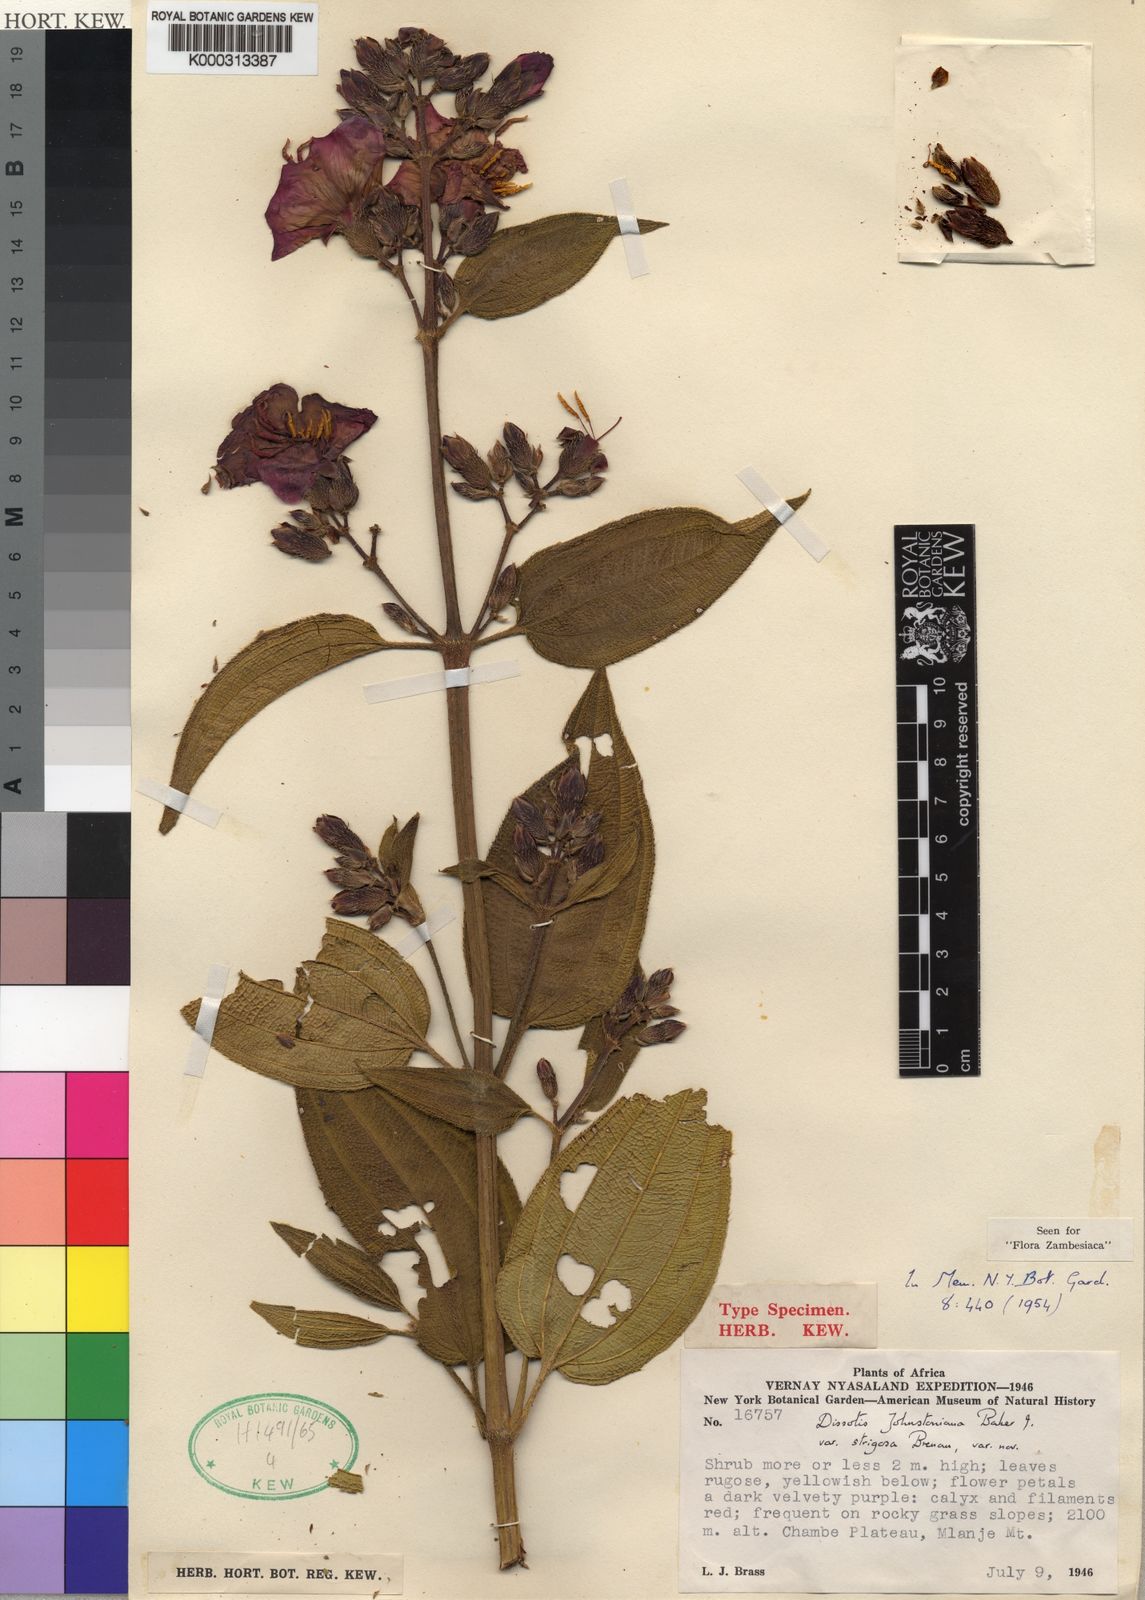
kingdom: Plantae
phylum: Tracheophyta
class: Magnoliopsida
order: Myrtales
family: Melastomataceae
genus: Dissotidendron
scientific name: Dissotidendron johnstonianum
